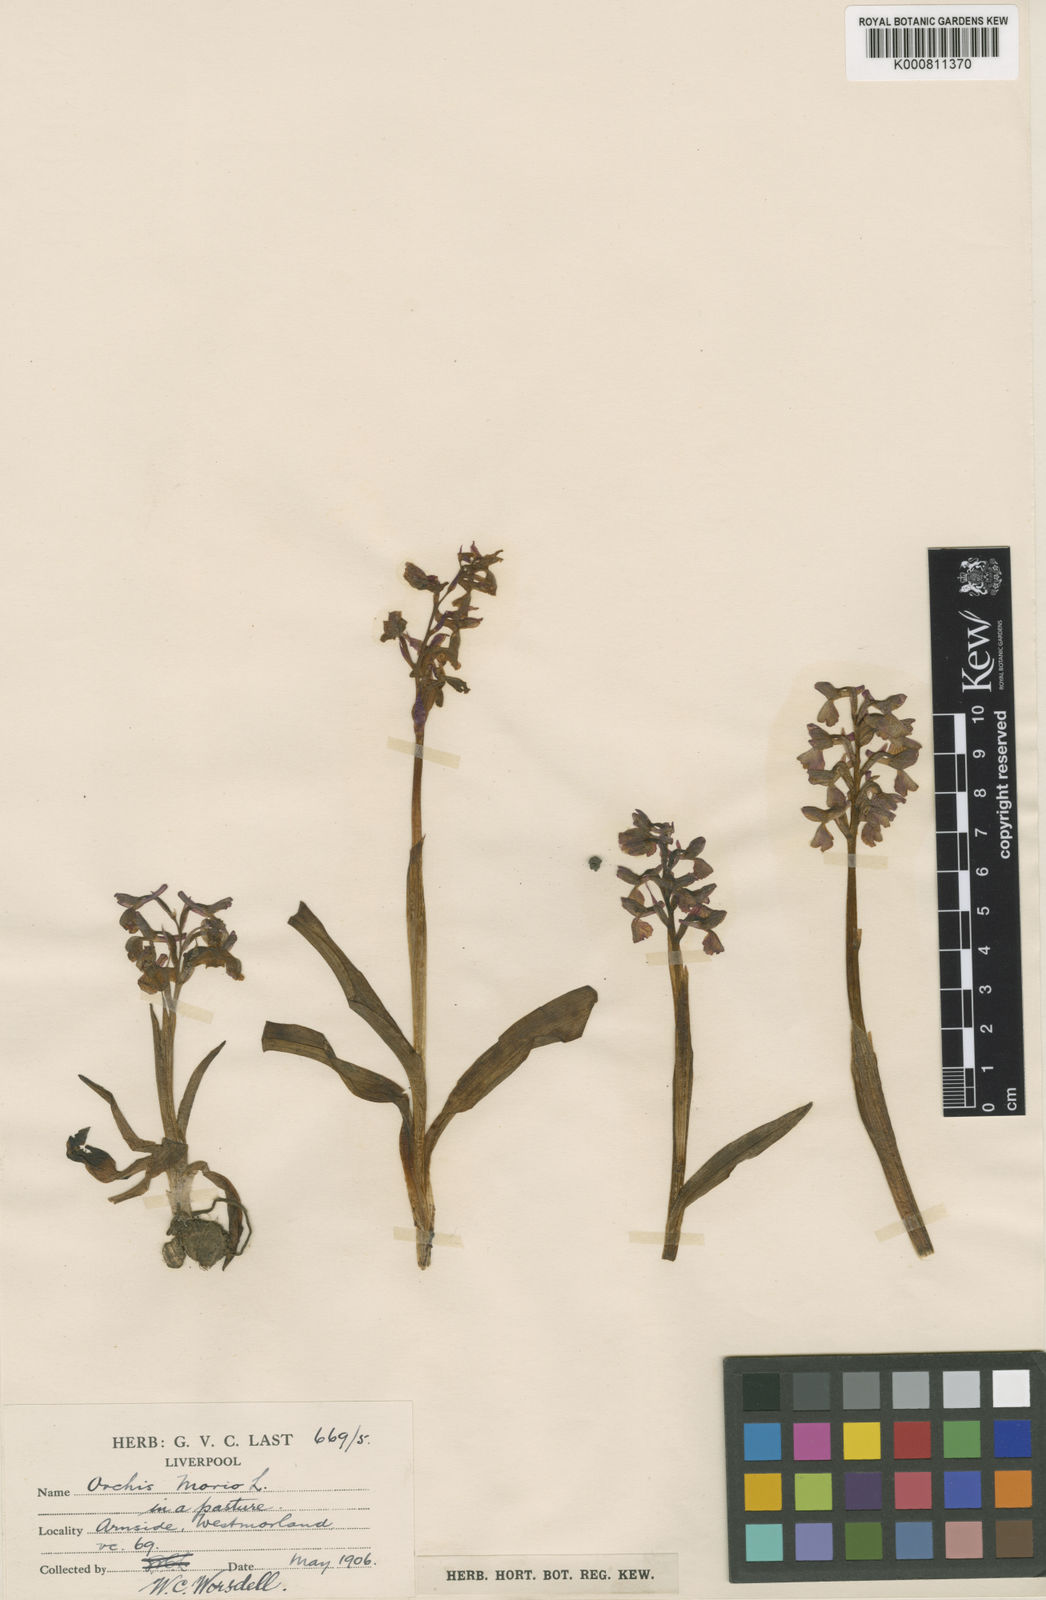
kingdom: Plantae
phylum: Tracheophyta
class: Liliopsida
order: Asparagales
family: Orchidaceae
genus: Anacamptis
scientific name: Anacamptis morio
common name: Green-winged orchid
